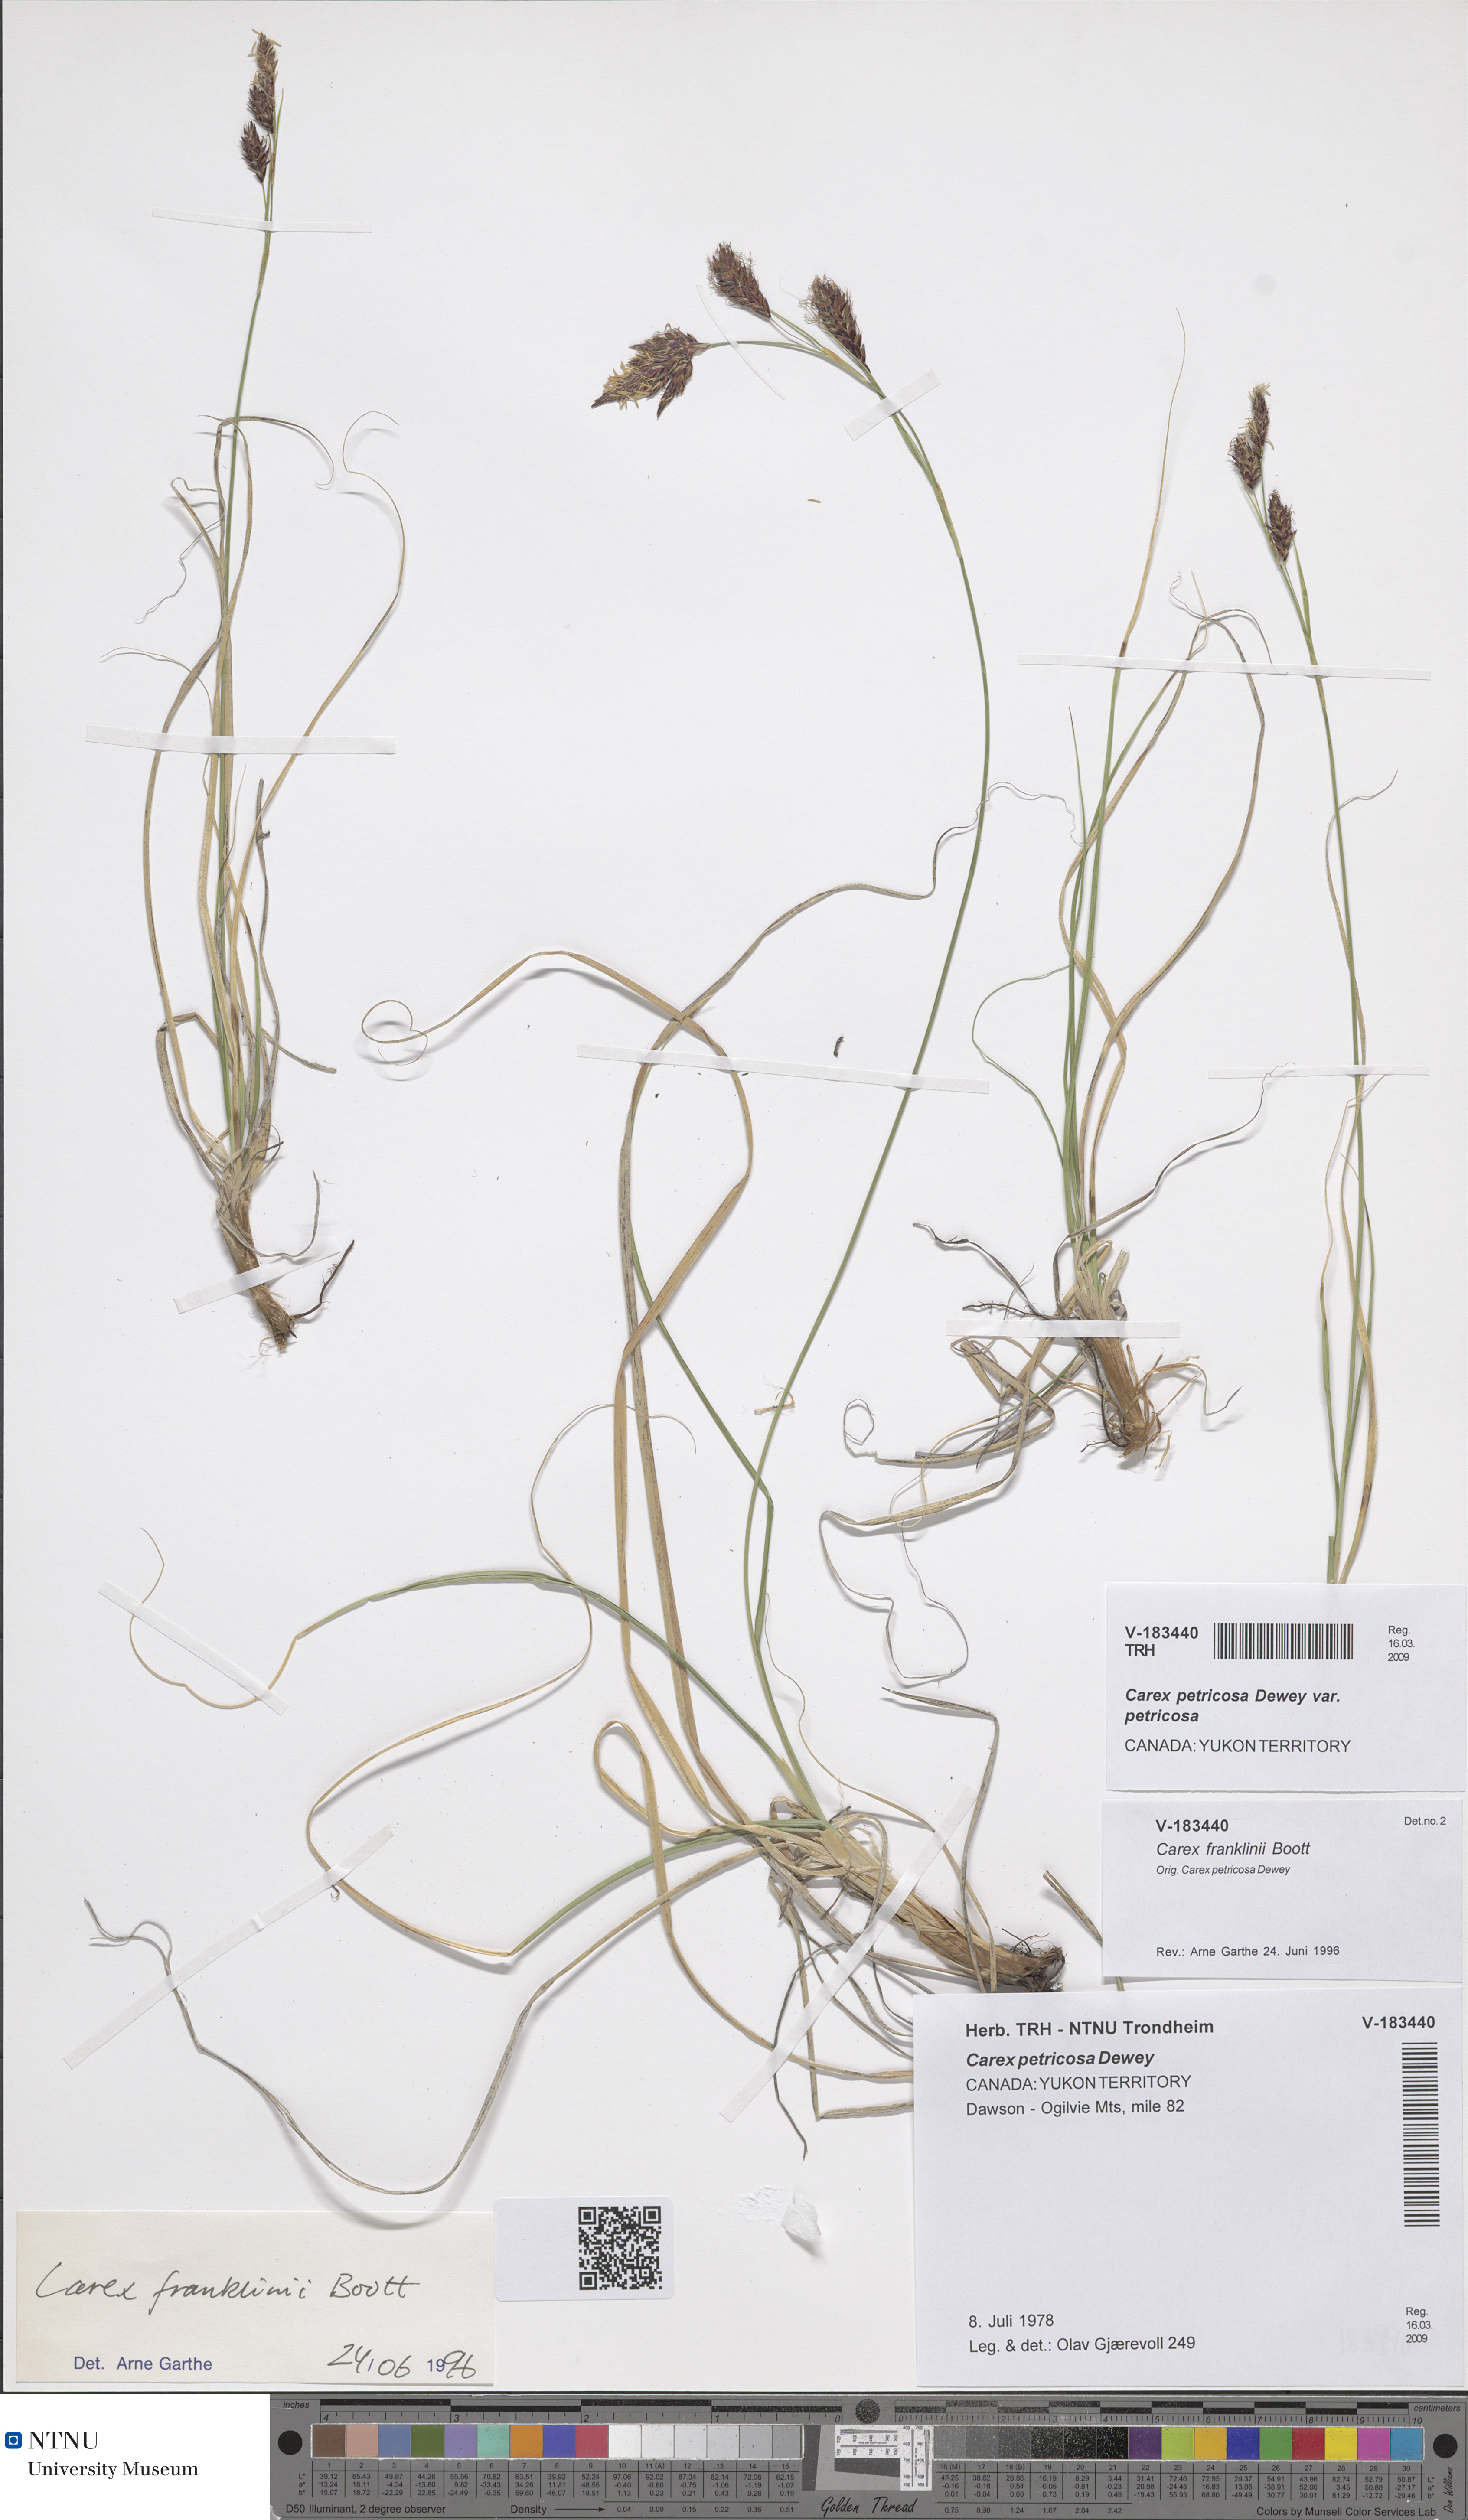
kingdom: Plantae
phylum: Tracheophyta
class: Liliopsida
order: Poales
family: Cyperaceae
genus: Carex
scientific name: Carex petricosa
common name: Rock sedge
